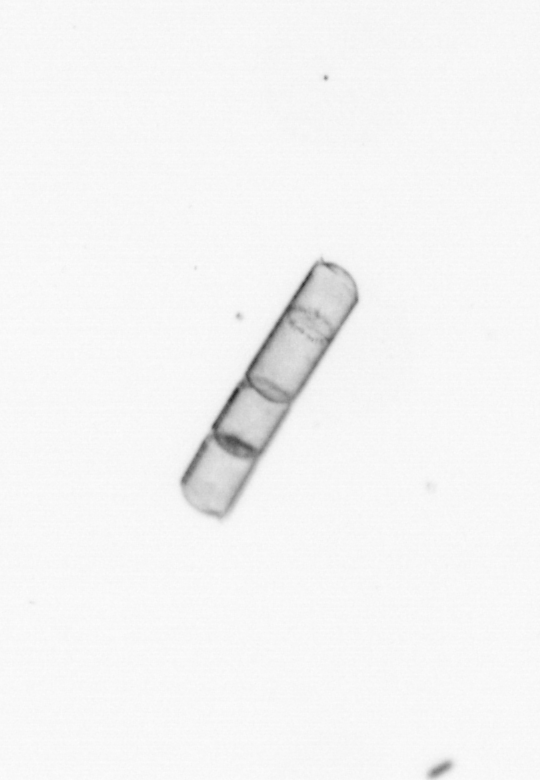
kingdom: Chromista
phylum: Ochrophyta
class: Bacillariophyceae
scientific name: Bacillariophyceae
